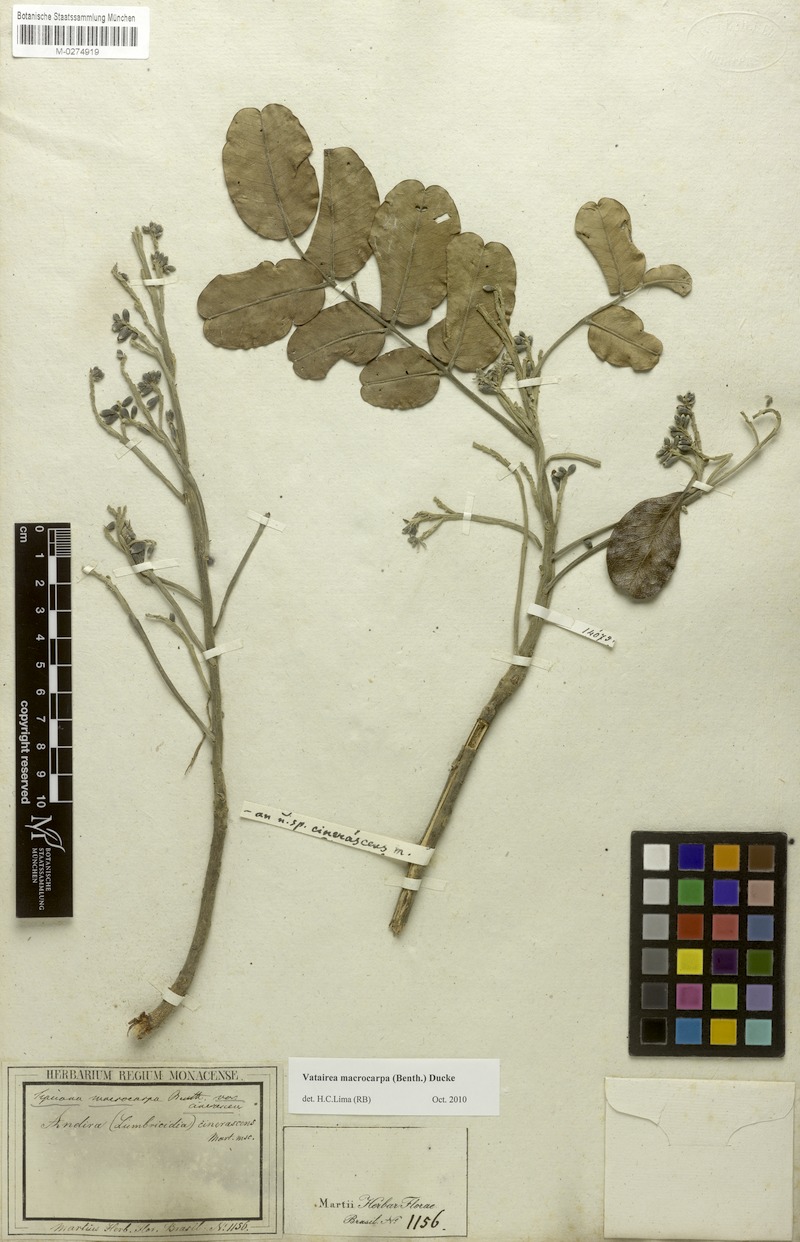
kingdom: Plantae
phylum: Tracheophyta
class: Magnoliopsida
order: Fabales
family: Fabaceae
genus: Vatairea
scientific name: Vatairea macrocarpa
